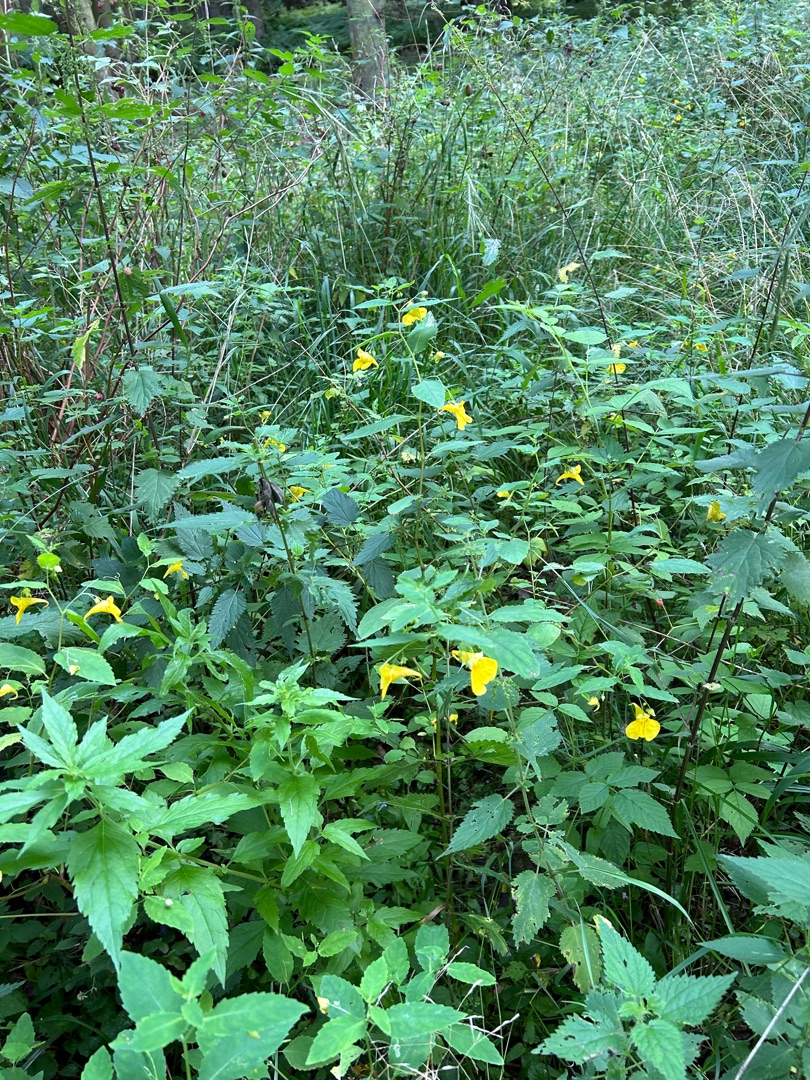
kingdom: Plantae
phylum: Tracheophyta
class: Magnoliopsida
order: Ericales
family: Balsaminaceae
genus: Impatiens
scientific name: Impatiens noli-tangere
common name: Spring-balsamin
